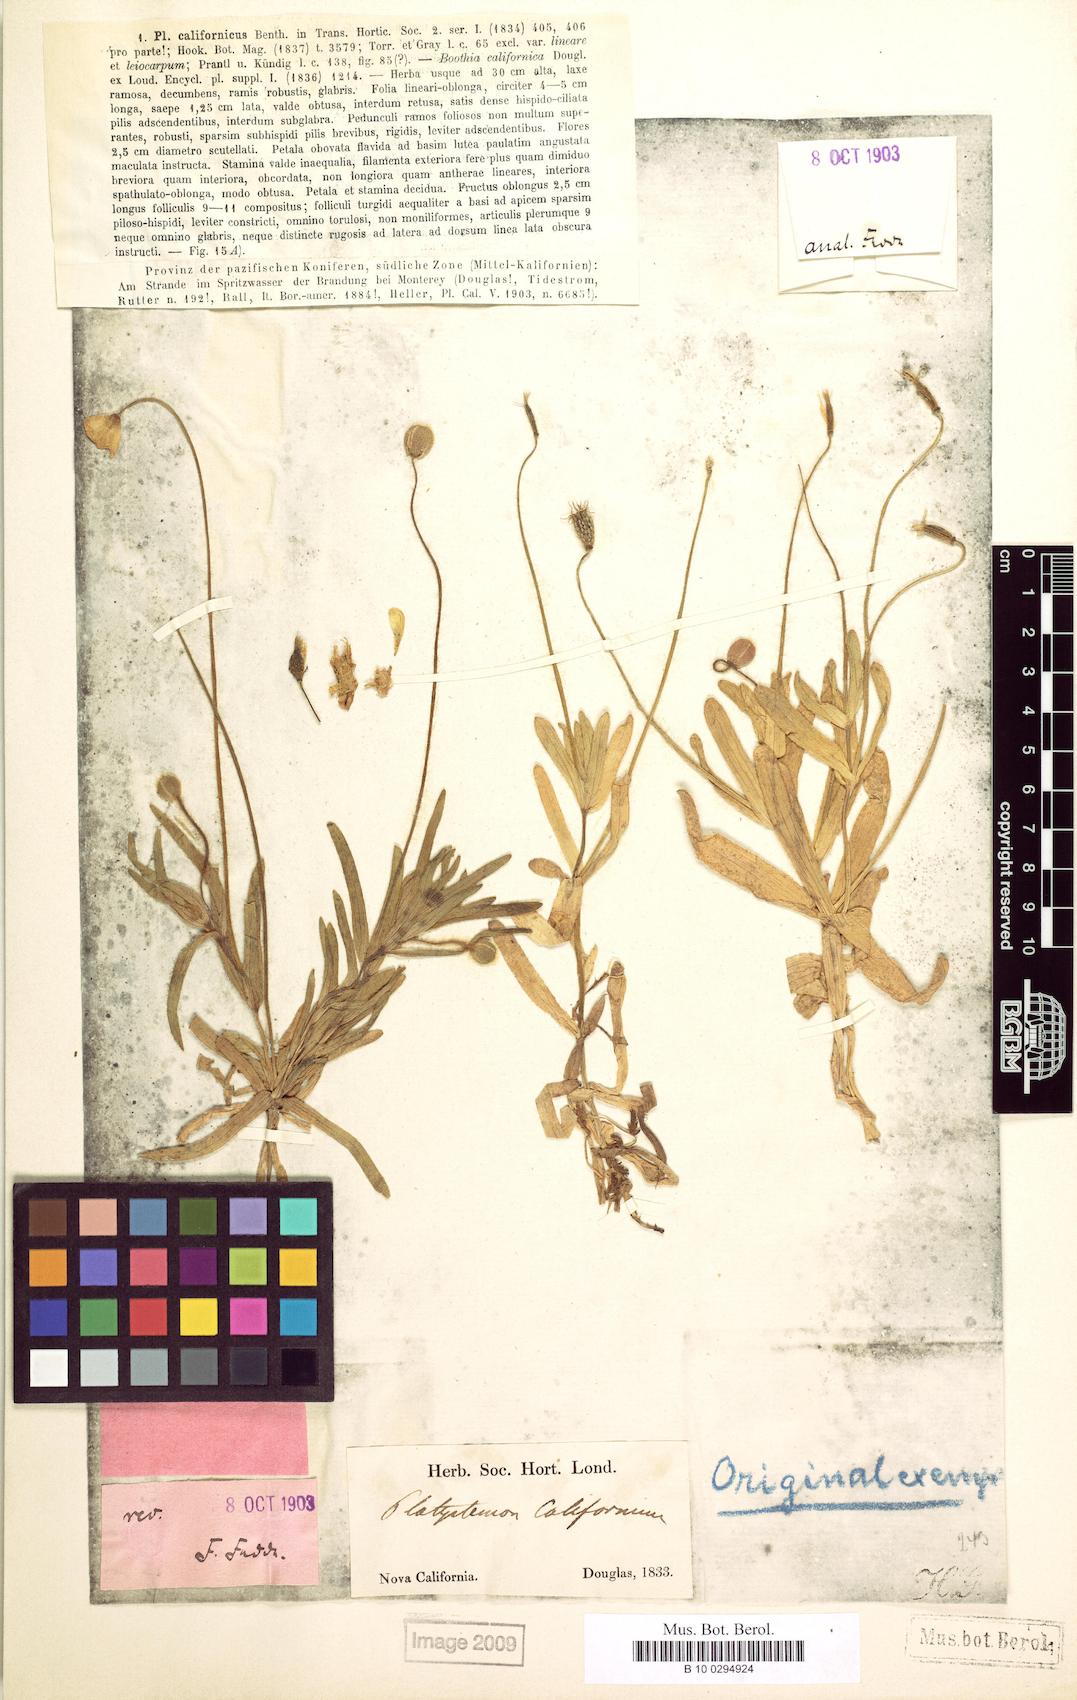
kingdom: Plantae
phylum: Tracheophyta
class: Magnoliopsida
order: Ranunculales
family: Papaveraceae
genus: Platystemon
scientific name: Platystemon californicus
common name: Cream-cups
